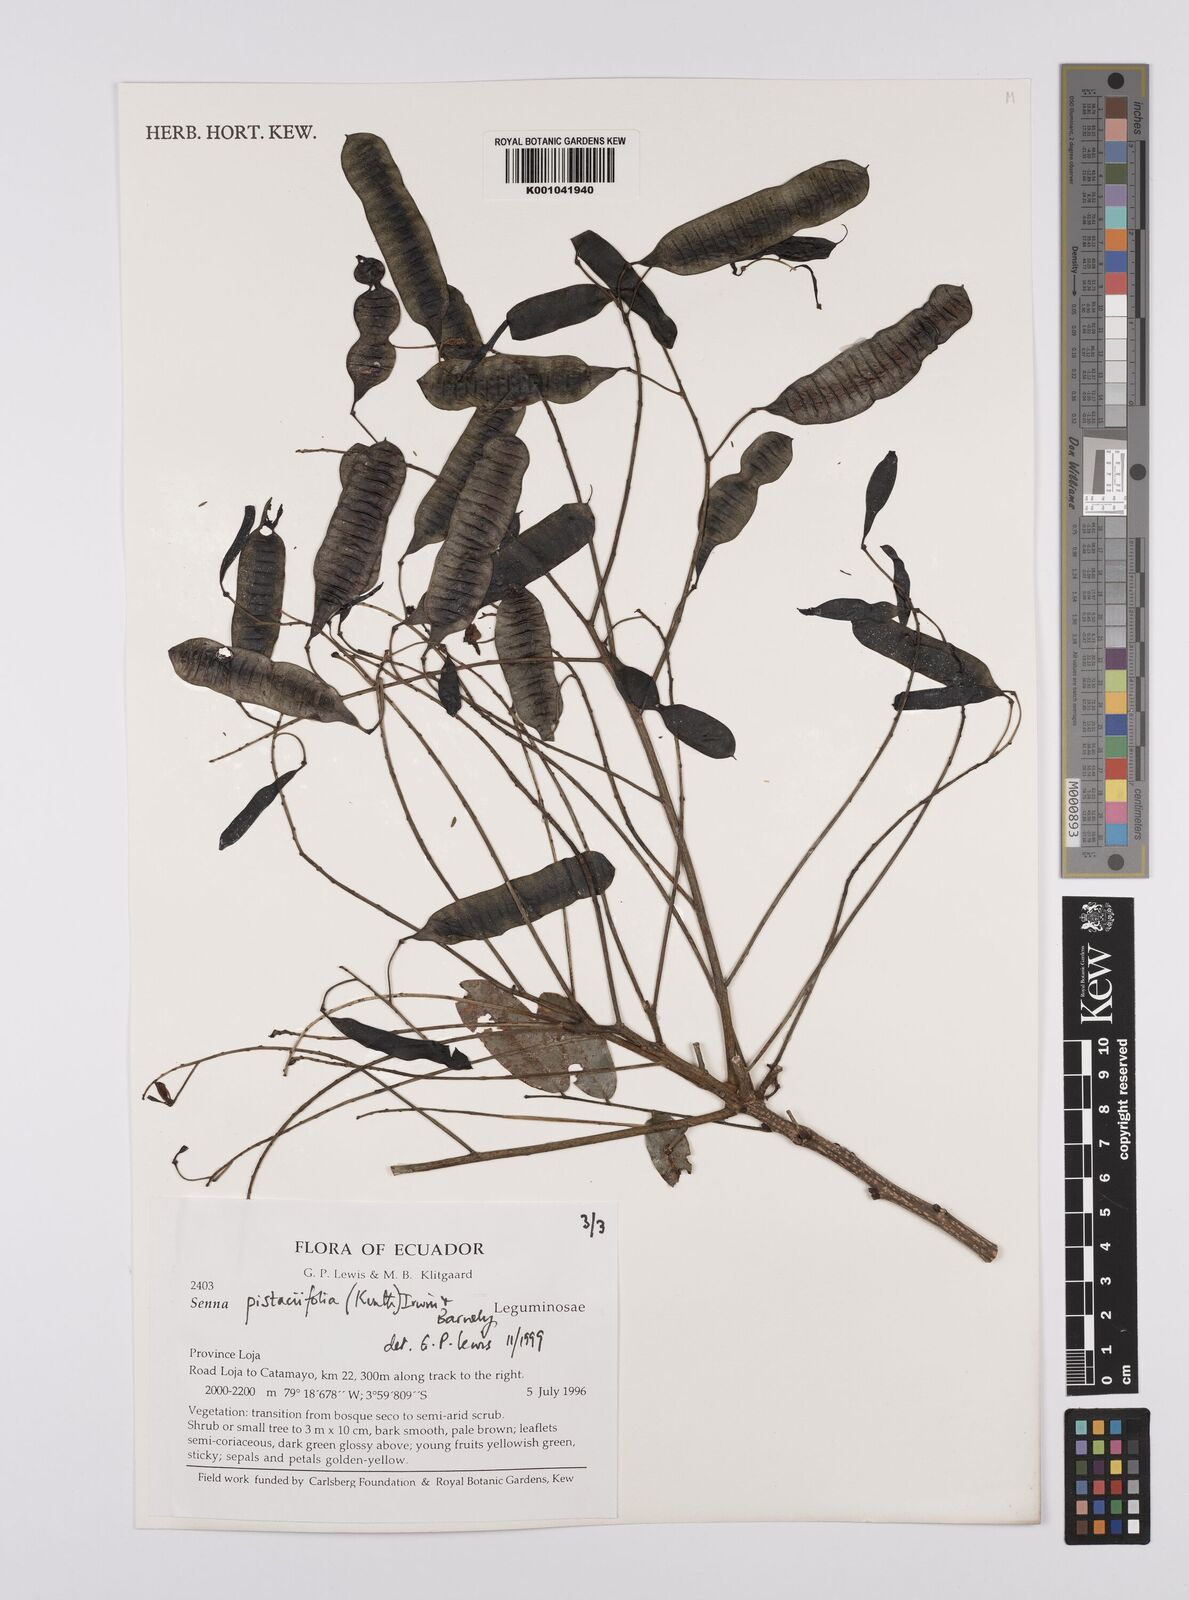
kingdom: Plantae
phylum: Tracheophyta
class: Magnoliopsida
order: Fabales
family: Fabaceae
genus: Senna
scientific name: Senna pistaciifolia
